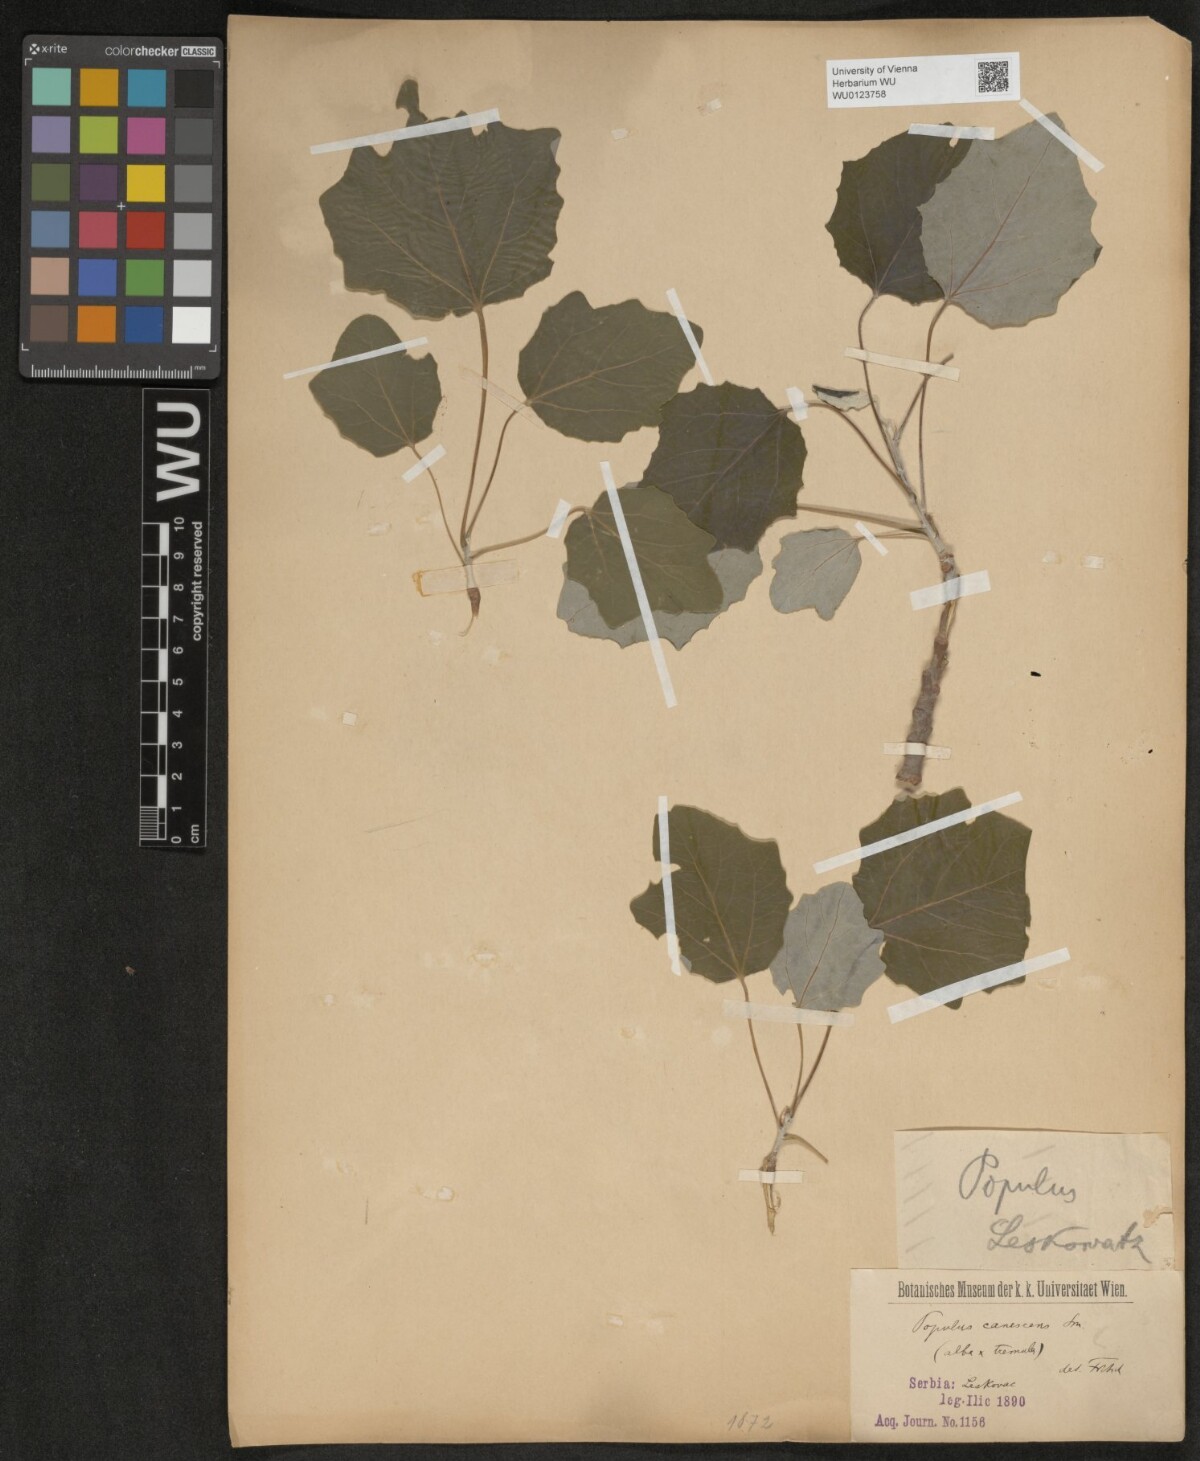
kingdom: Plantae
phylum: Tracheophyta
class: Magnoliopsida
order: Malpighiales
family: Salicaceae
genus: Populus
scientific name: Populus alba
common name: White poplar
